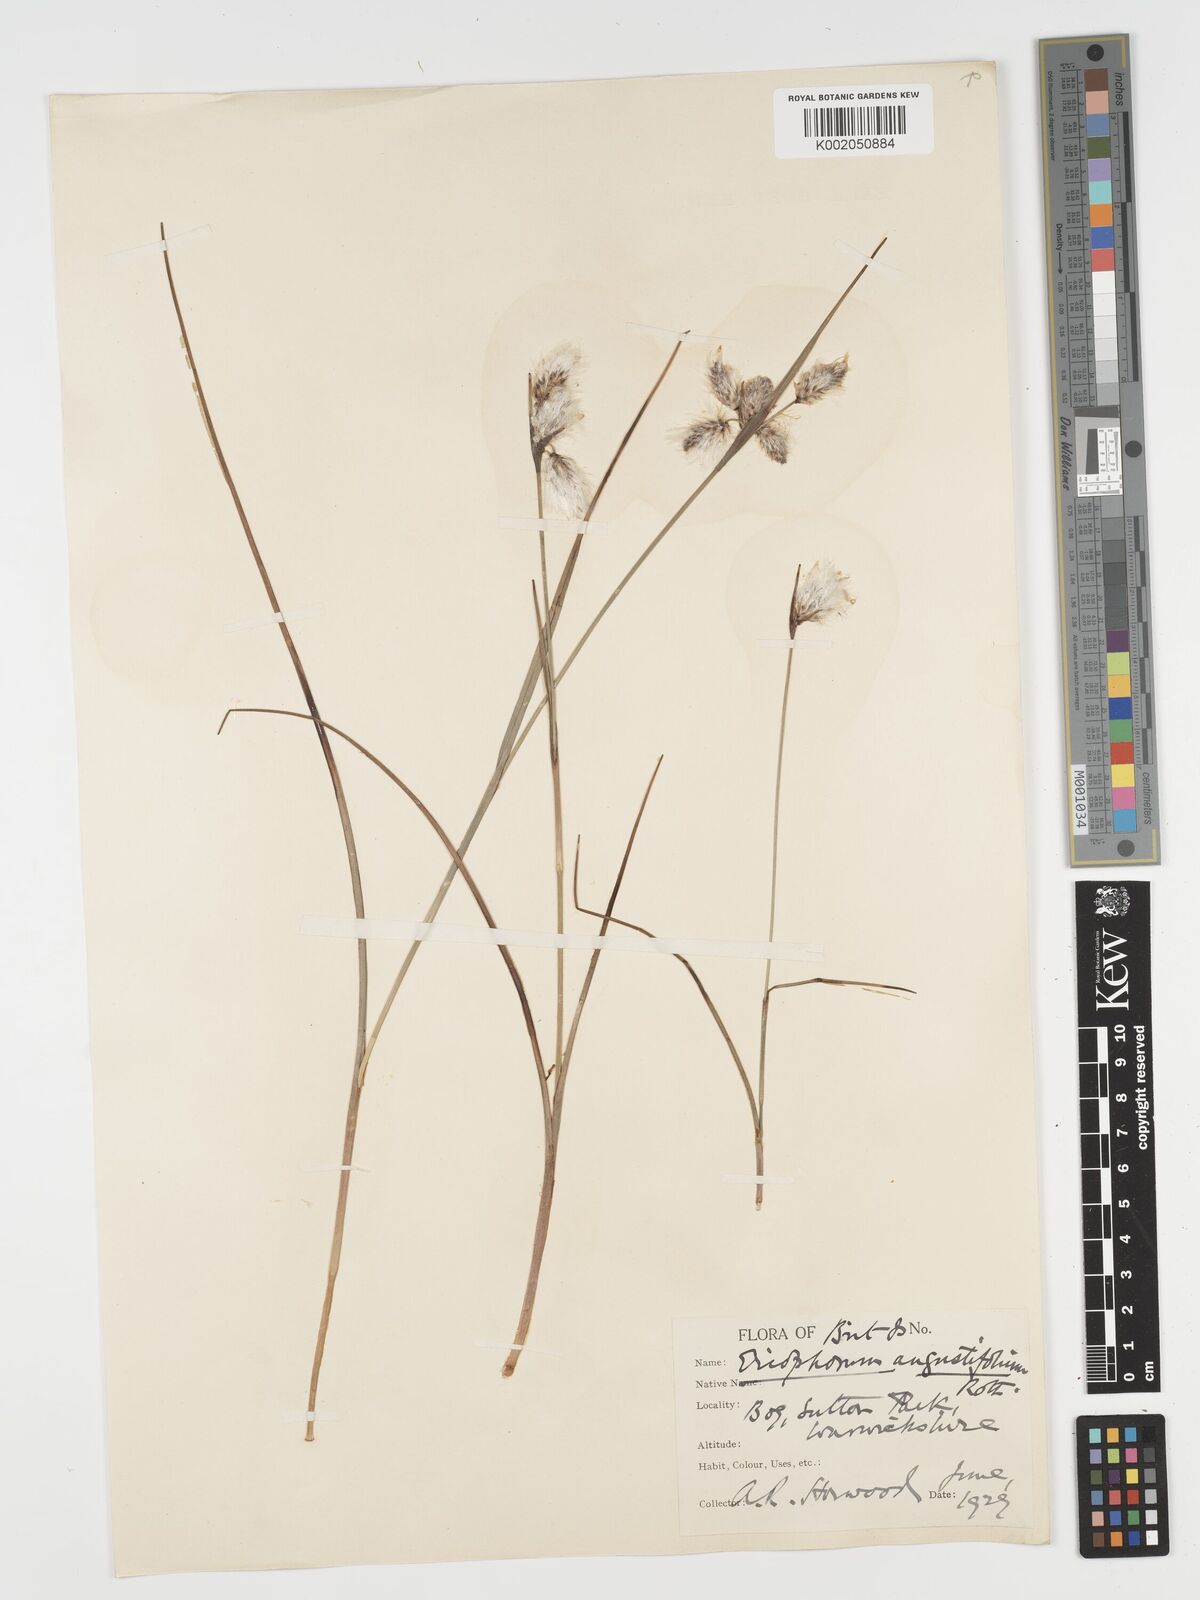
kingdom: Plantae
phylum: Tracheophyta
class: Liliopsida
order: Poales
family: Cyperaceae
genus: Eriophorum
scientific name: Eriophorum angustifolium
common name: Common cottongrass
